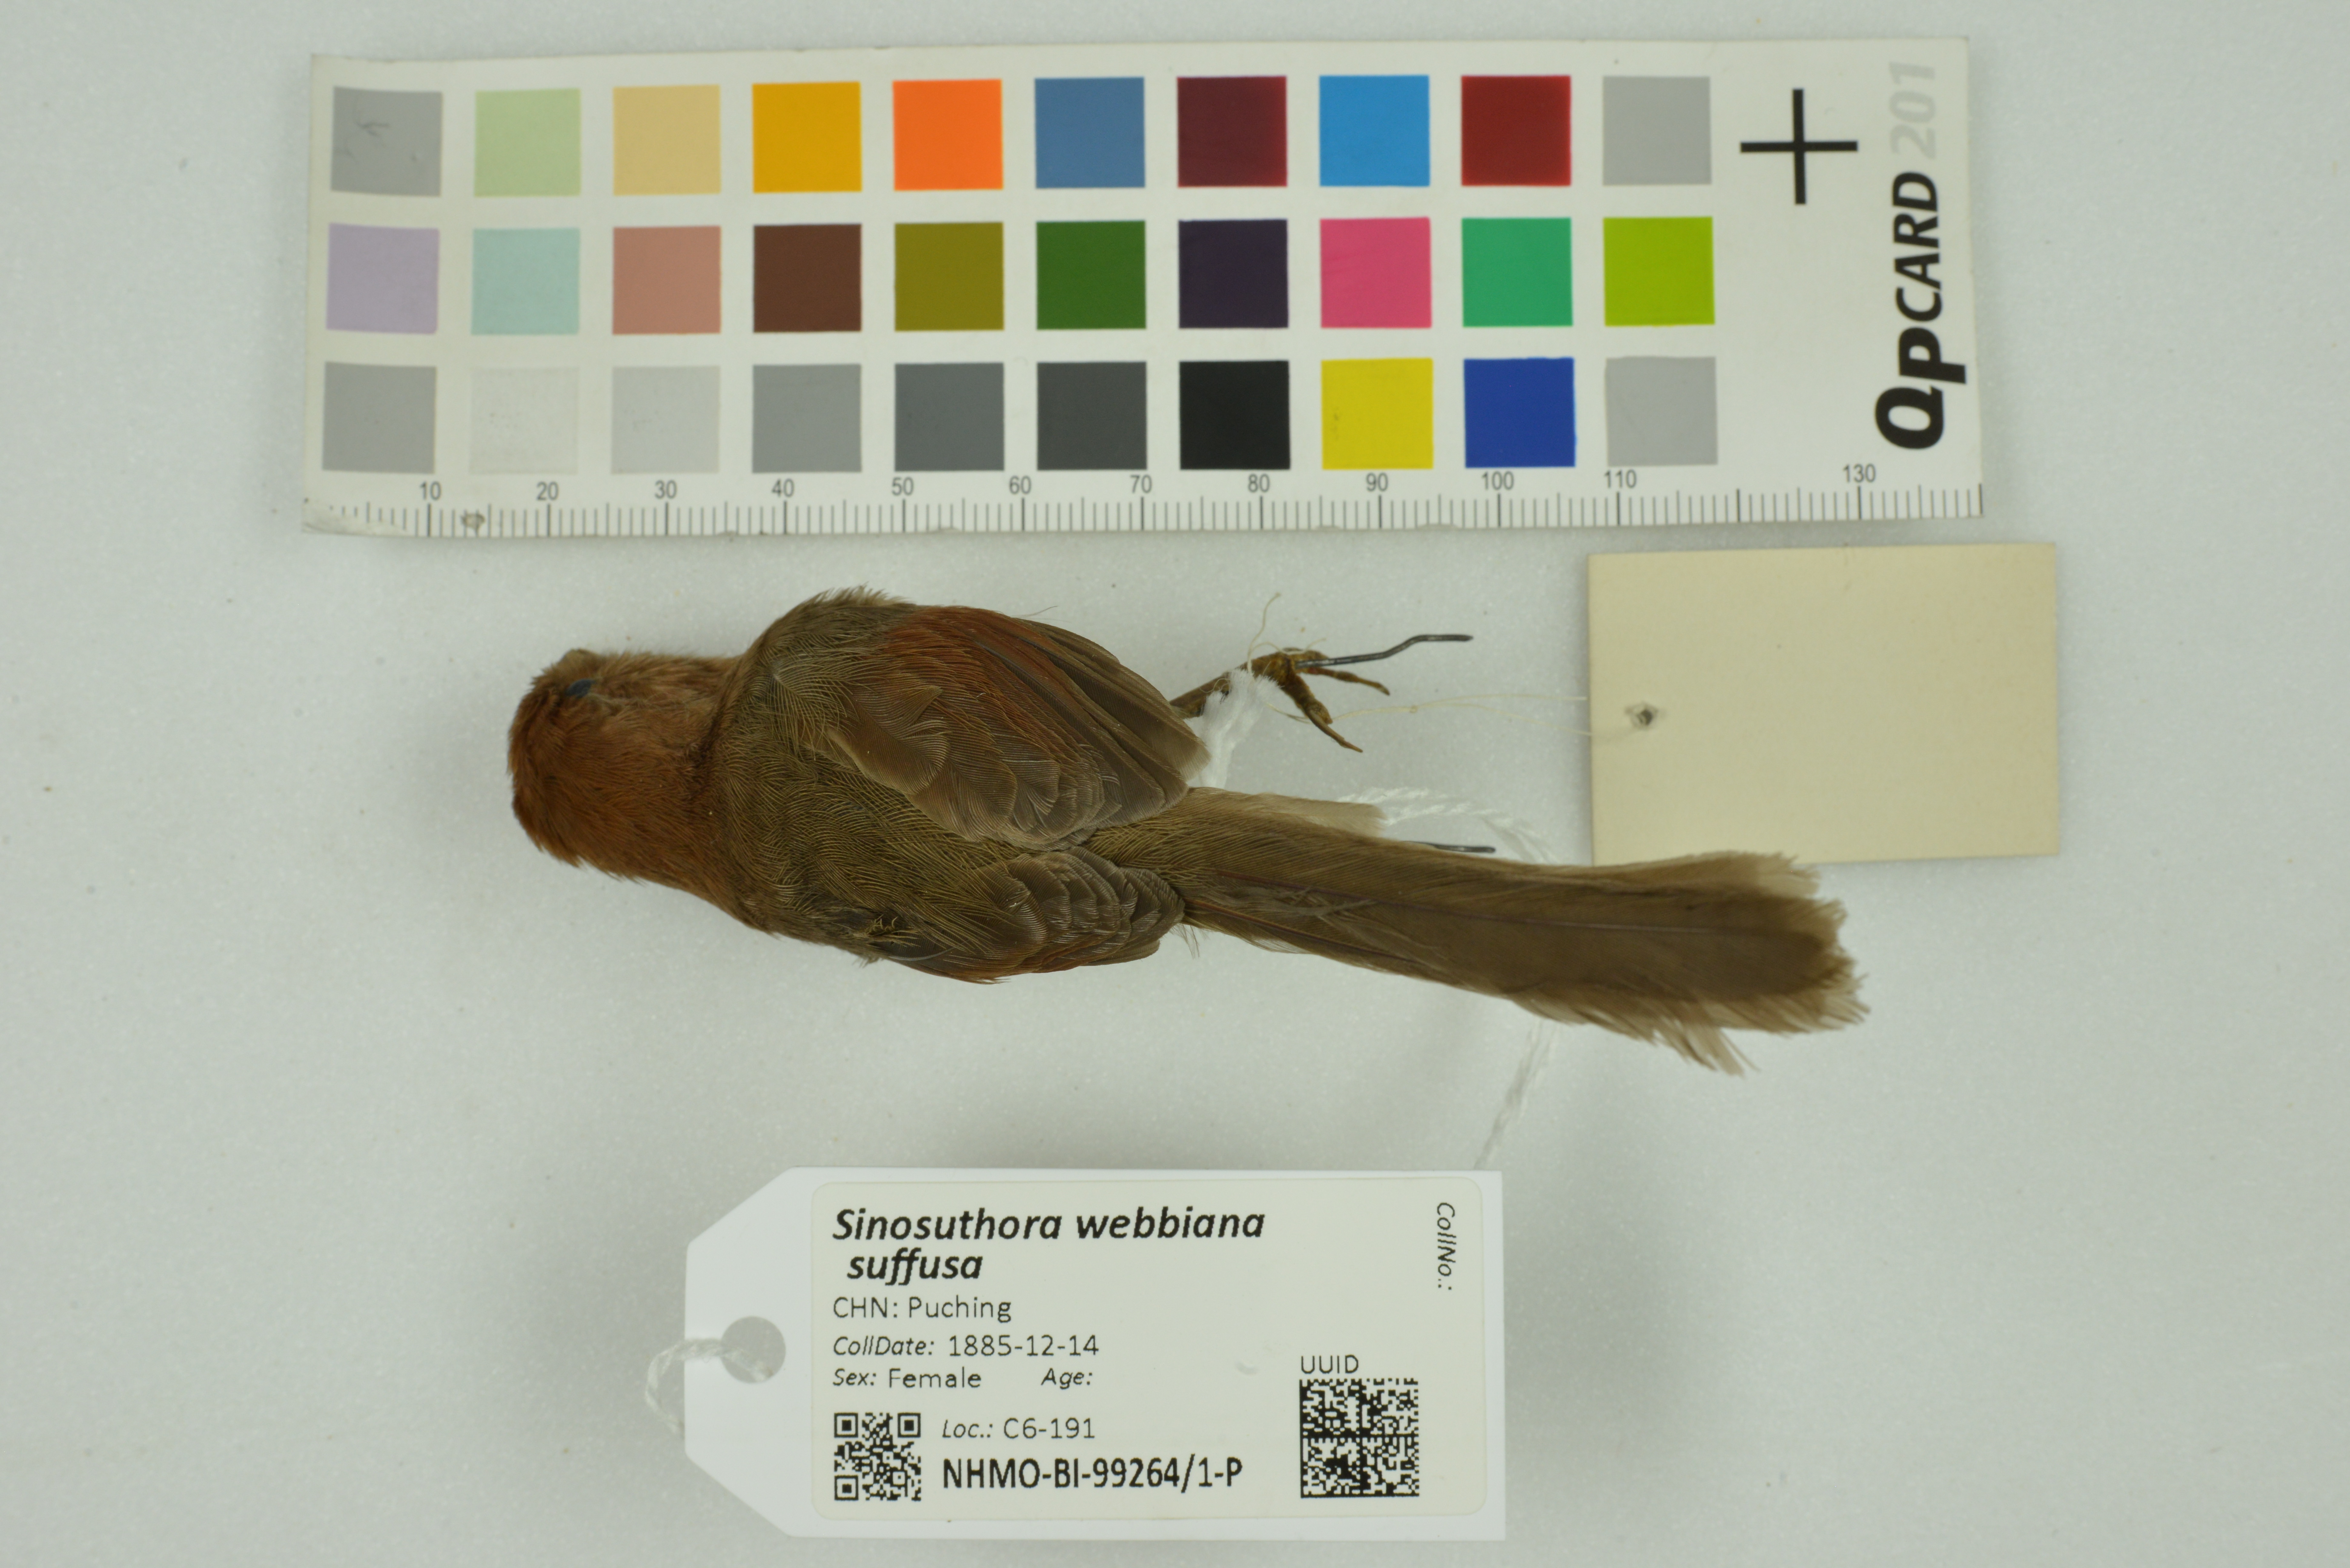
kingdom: Animalia
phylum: Chordata
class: Aves
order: Passeriformes
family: Sylviidae
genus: Sinosuthora
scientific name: Sinosuthora webbiana
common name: Vinous-throated parrotbill
